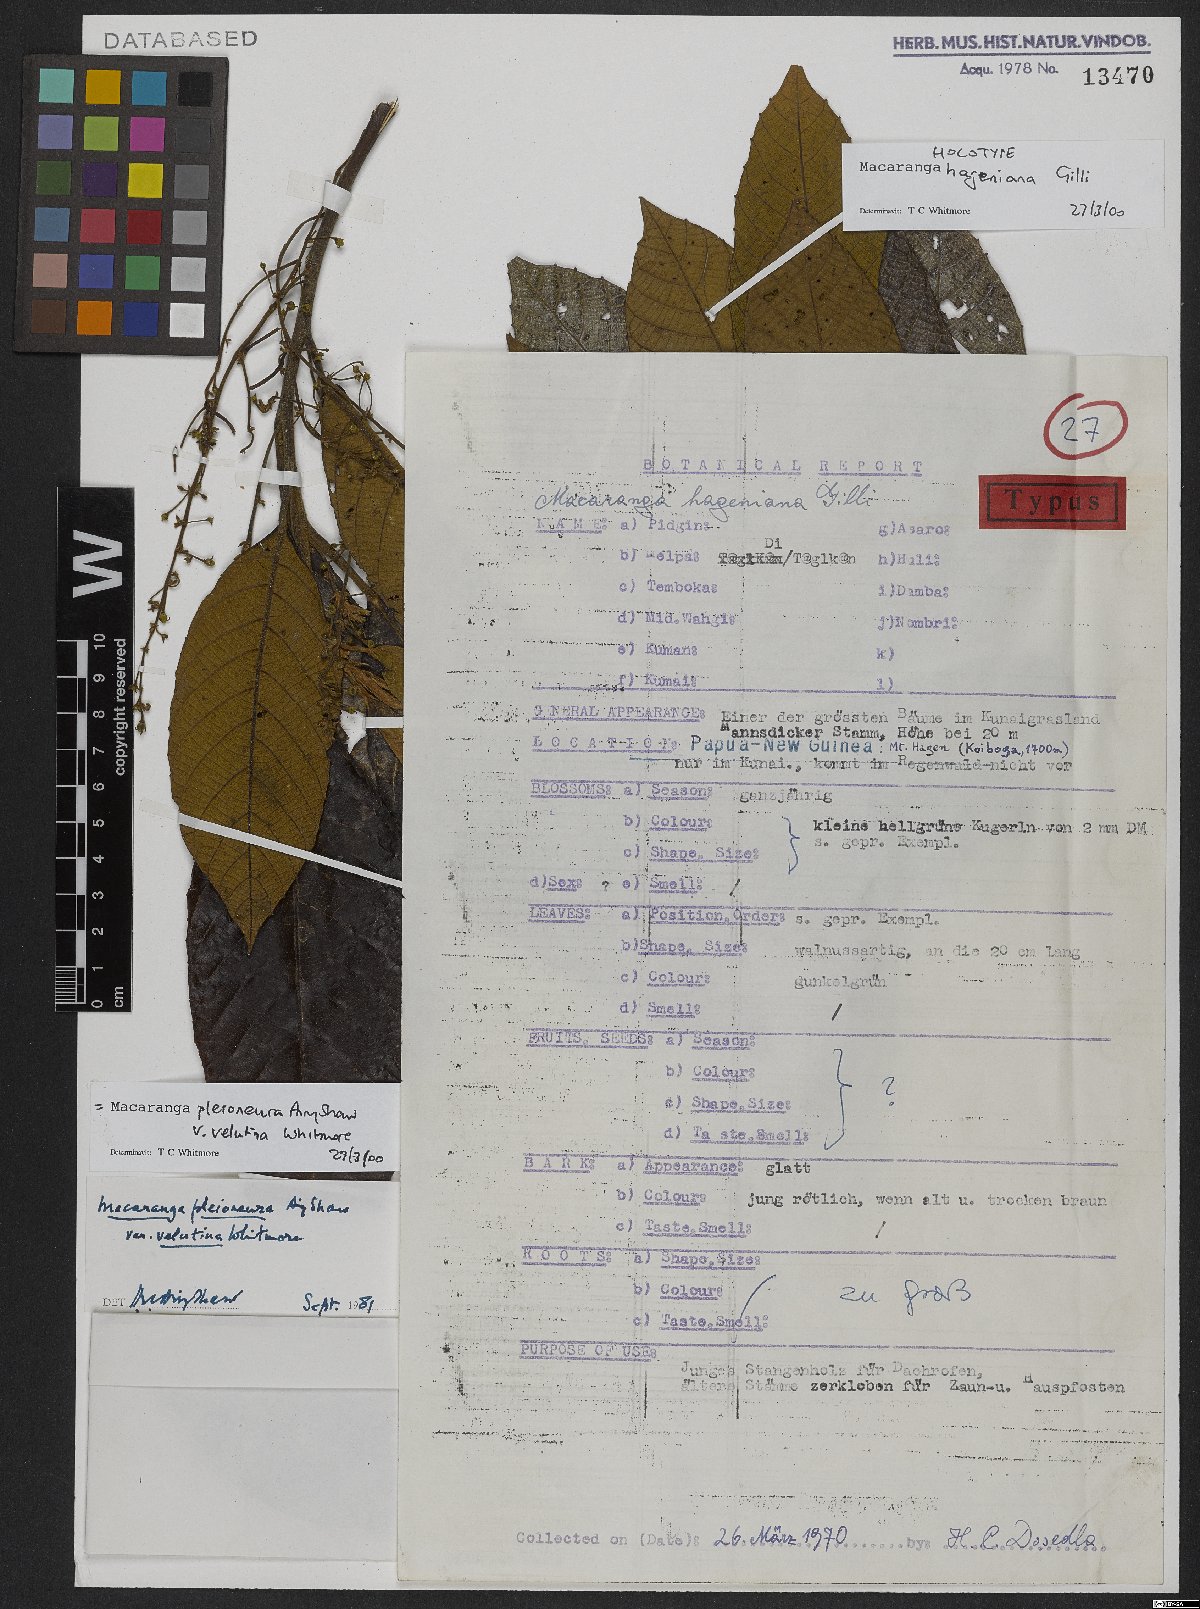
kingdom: Plantae
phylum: Tracheophyta
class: Magnoliopsida
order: Malpighiales
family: Euphorbiaceae
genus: Macaranga
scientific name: Macaranga pleioneura
